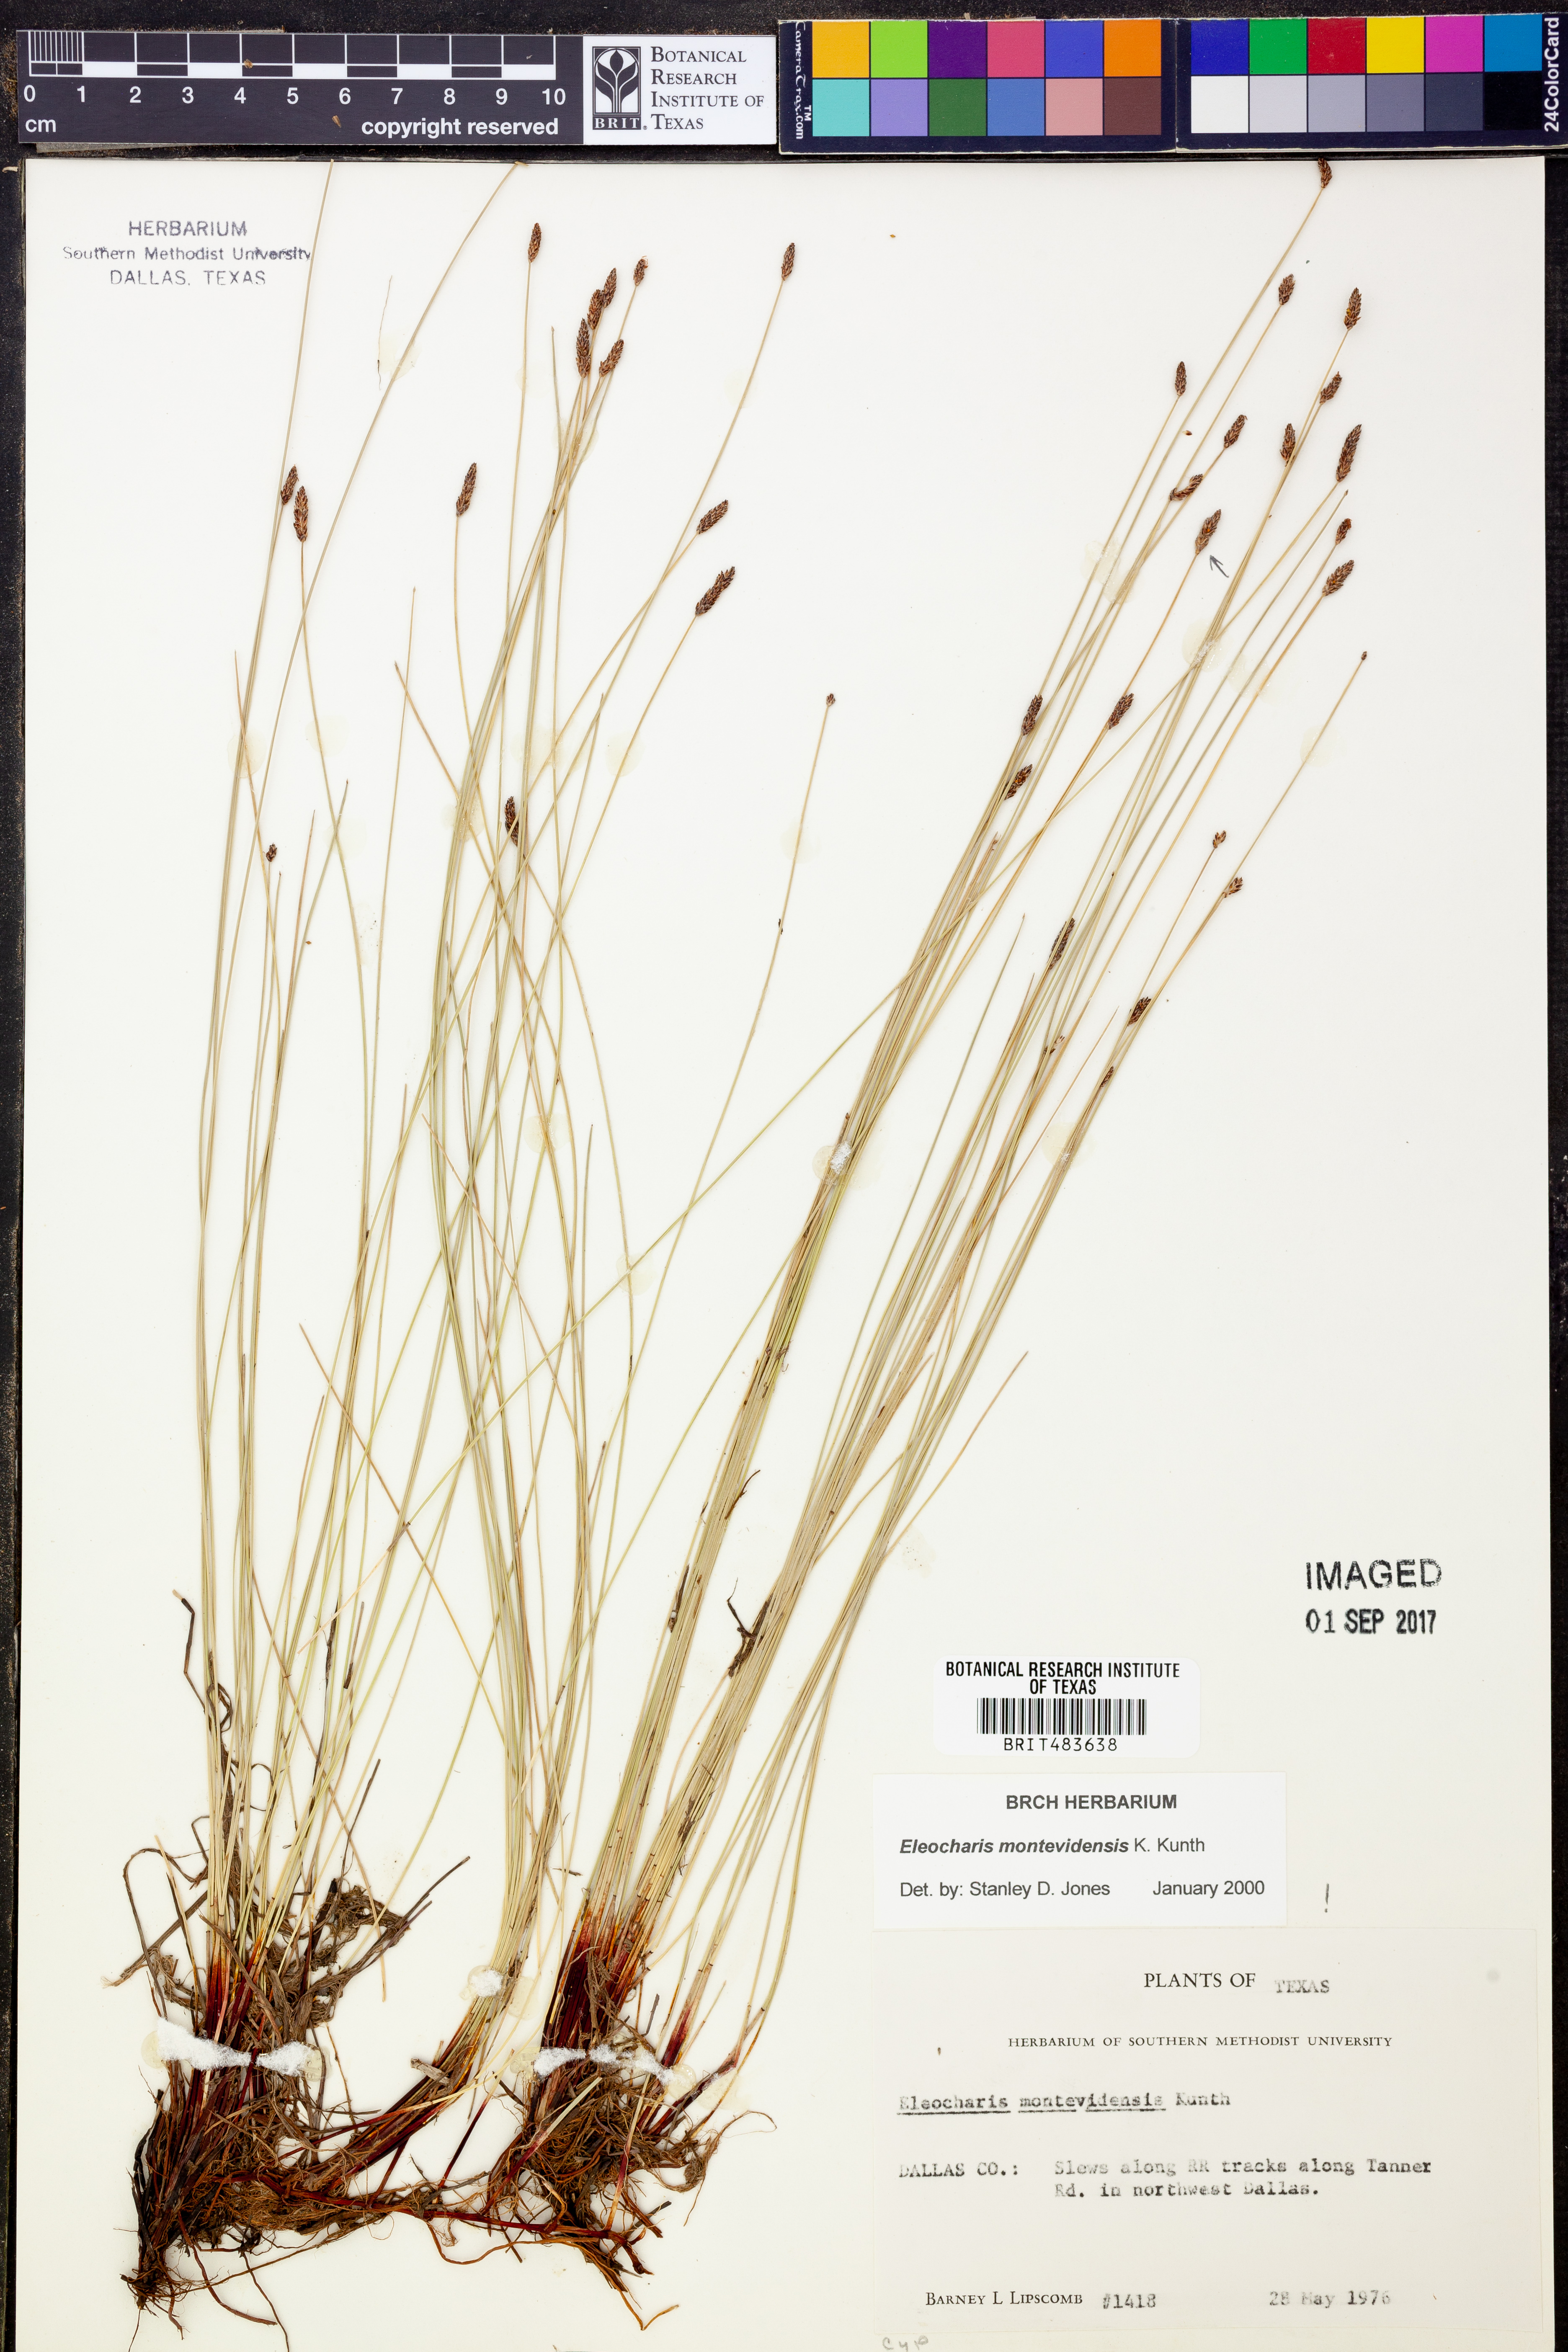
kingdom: Plantae
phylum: Tracheophyta
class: Liliopsida
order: Poales
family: Cyperaceae
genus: Eleocharis
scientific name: Eleocharis montevidensis
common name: Sand spike-rush
